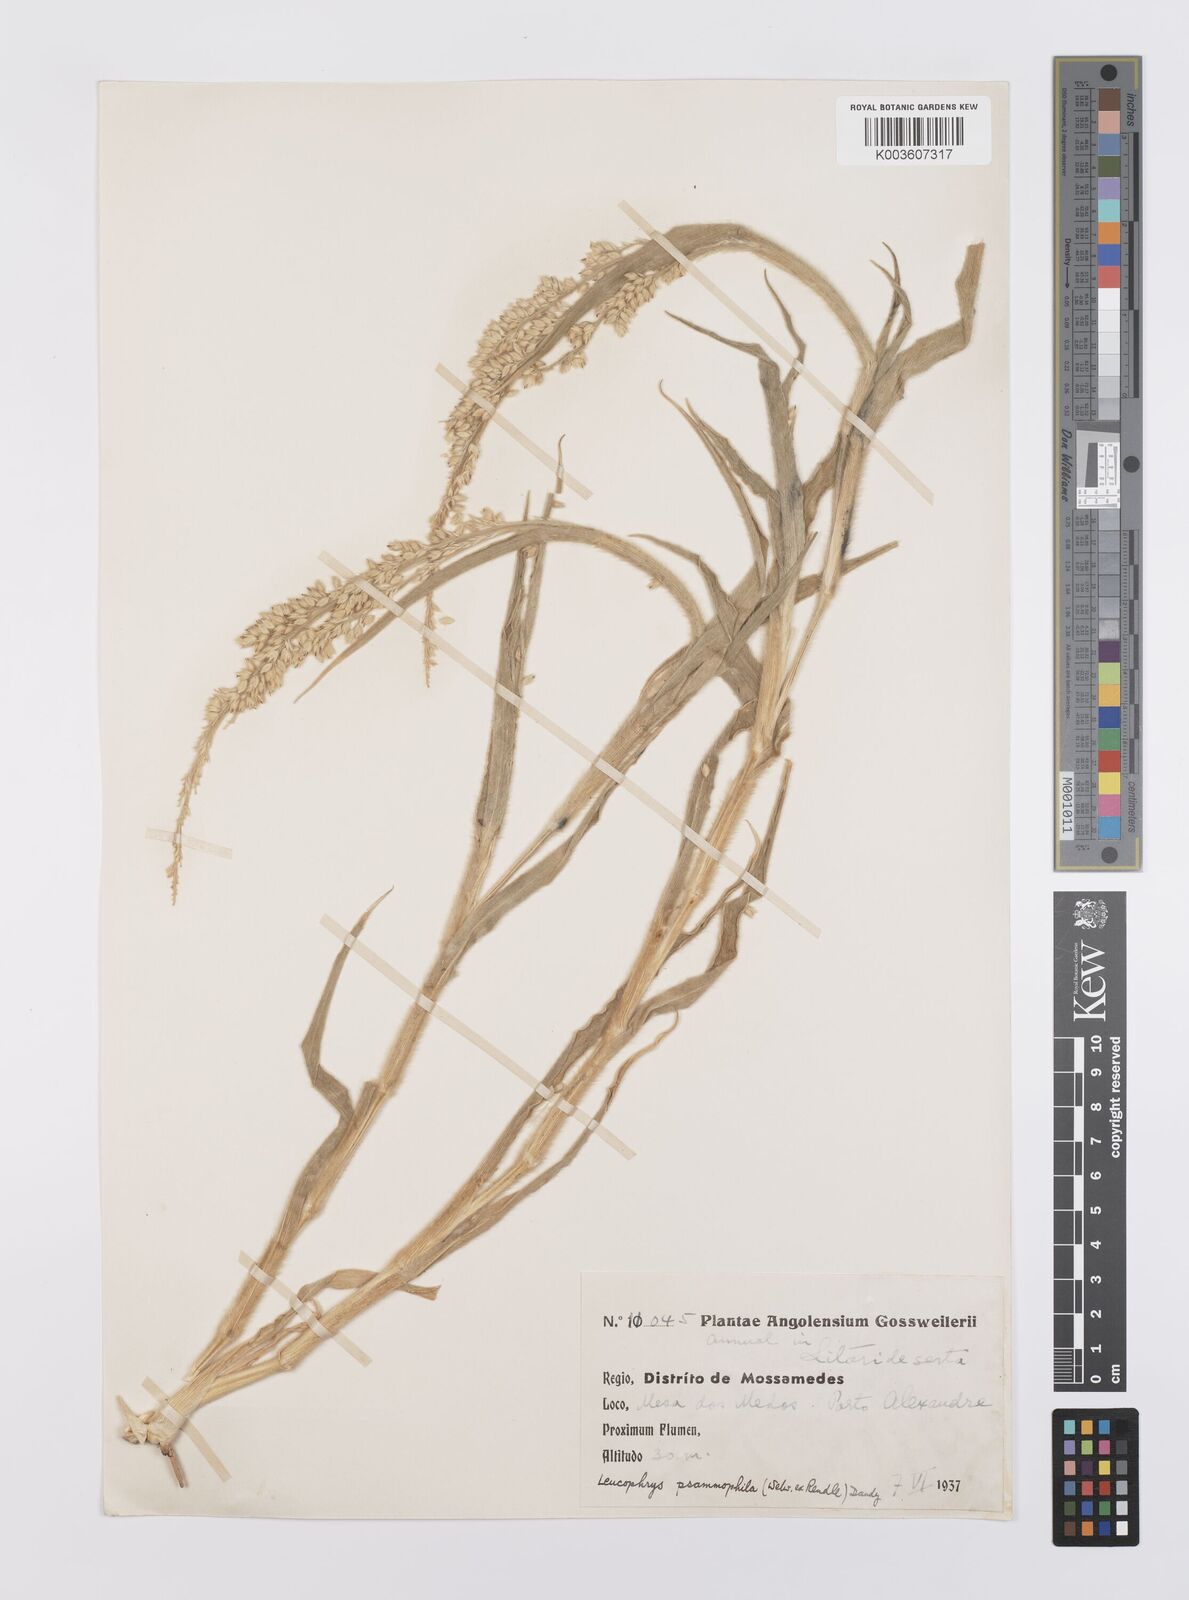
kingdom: Plantae
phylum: Tracheophyta
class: Liliopsida
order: Poales
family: Poaceae
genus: Urochloa
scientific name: Urochloa Brachiaria psammophila
